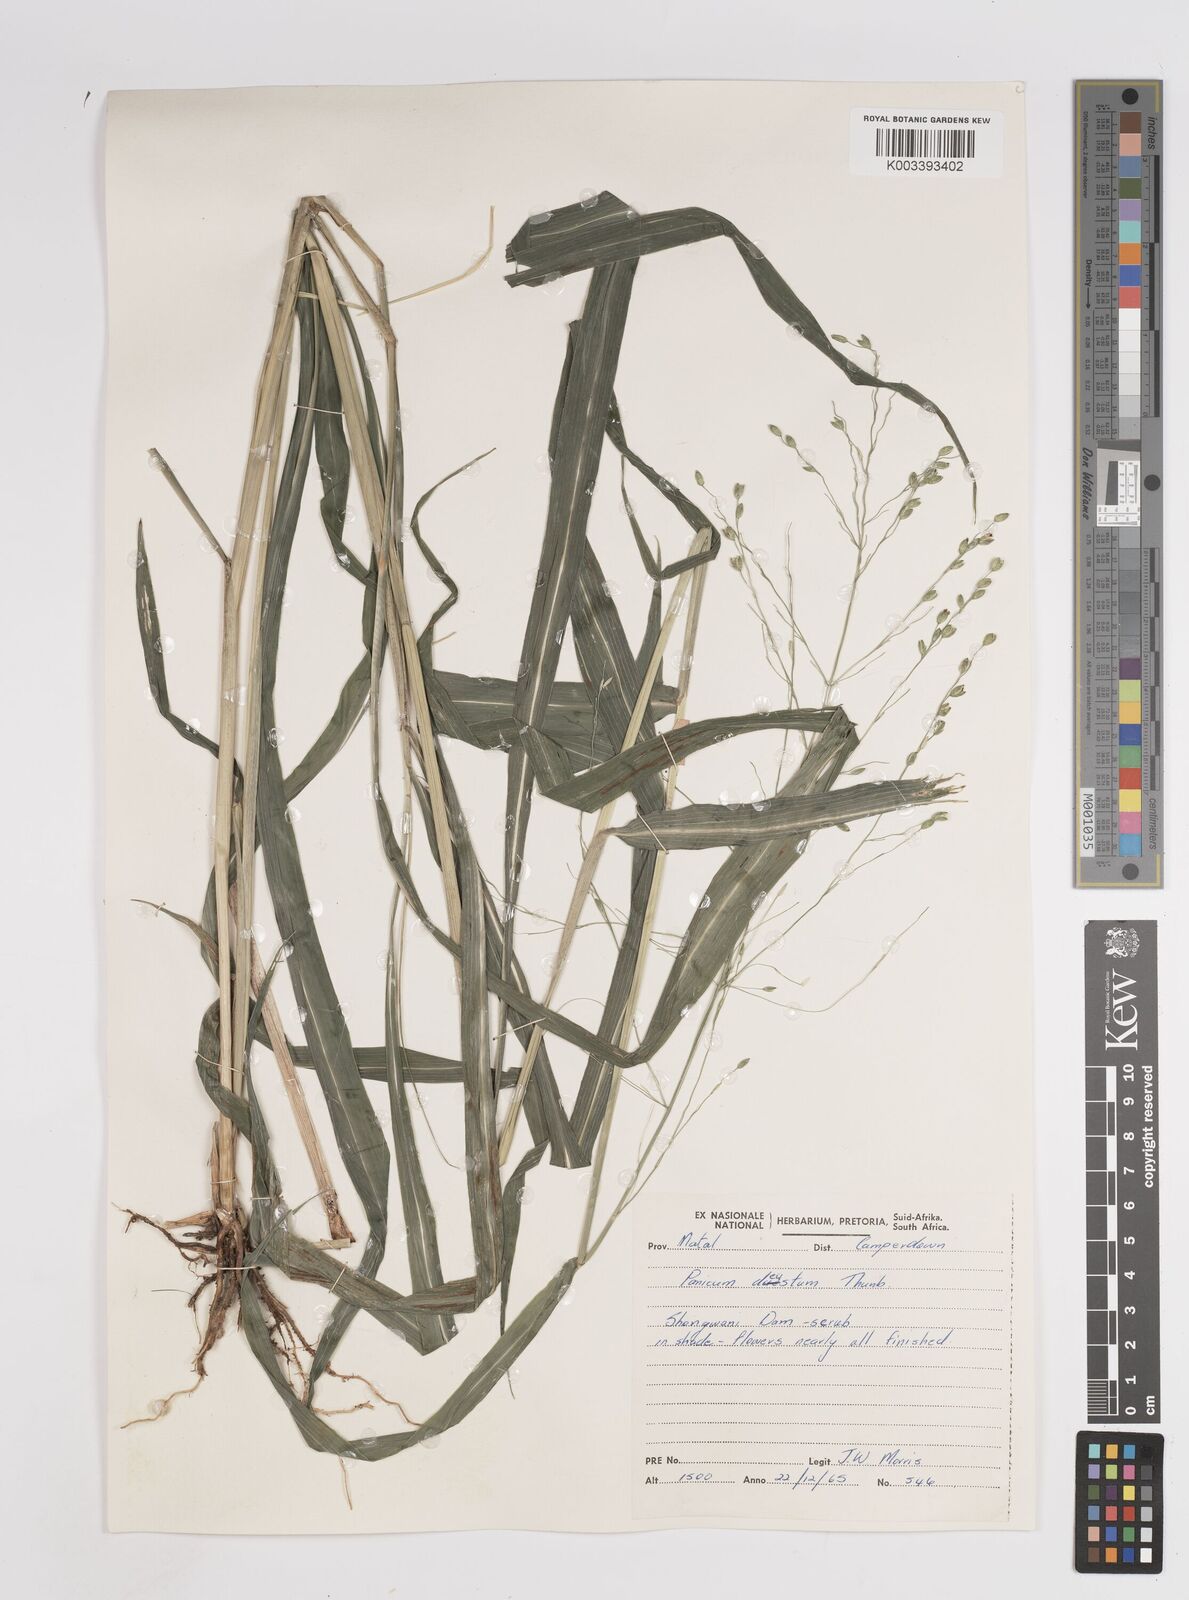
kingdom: Plantae
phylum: Tracheophyta
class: Liliopsida
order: Poales
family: Poaceae
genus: Panicum
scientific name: Panicum deustum
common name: Reed panicum
